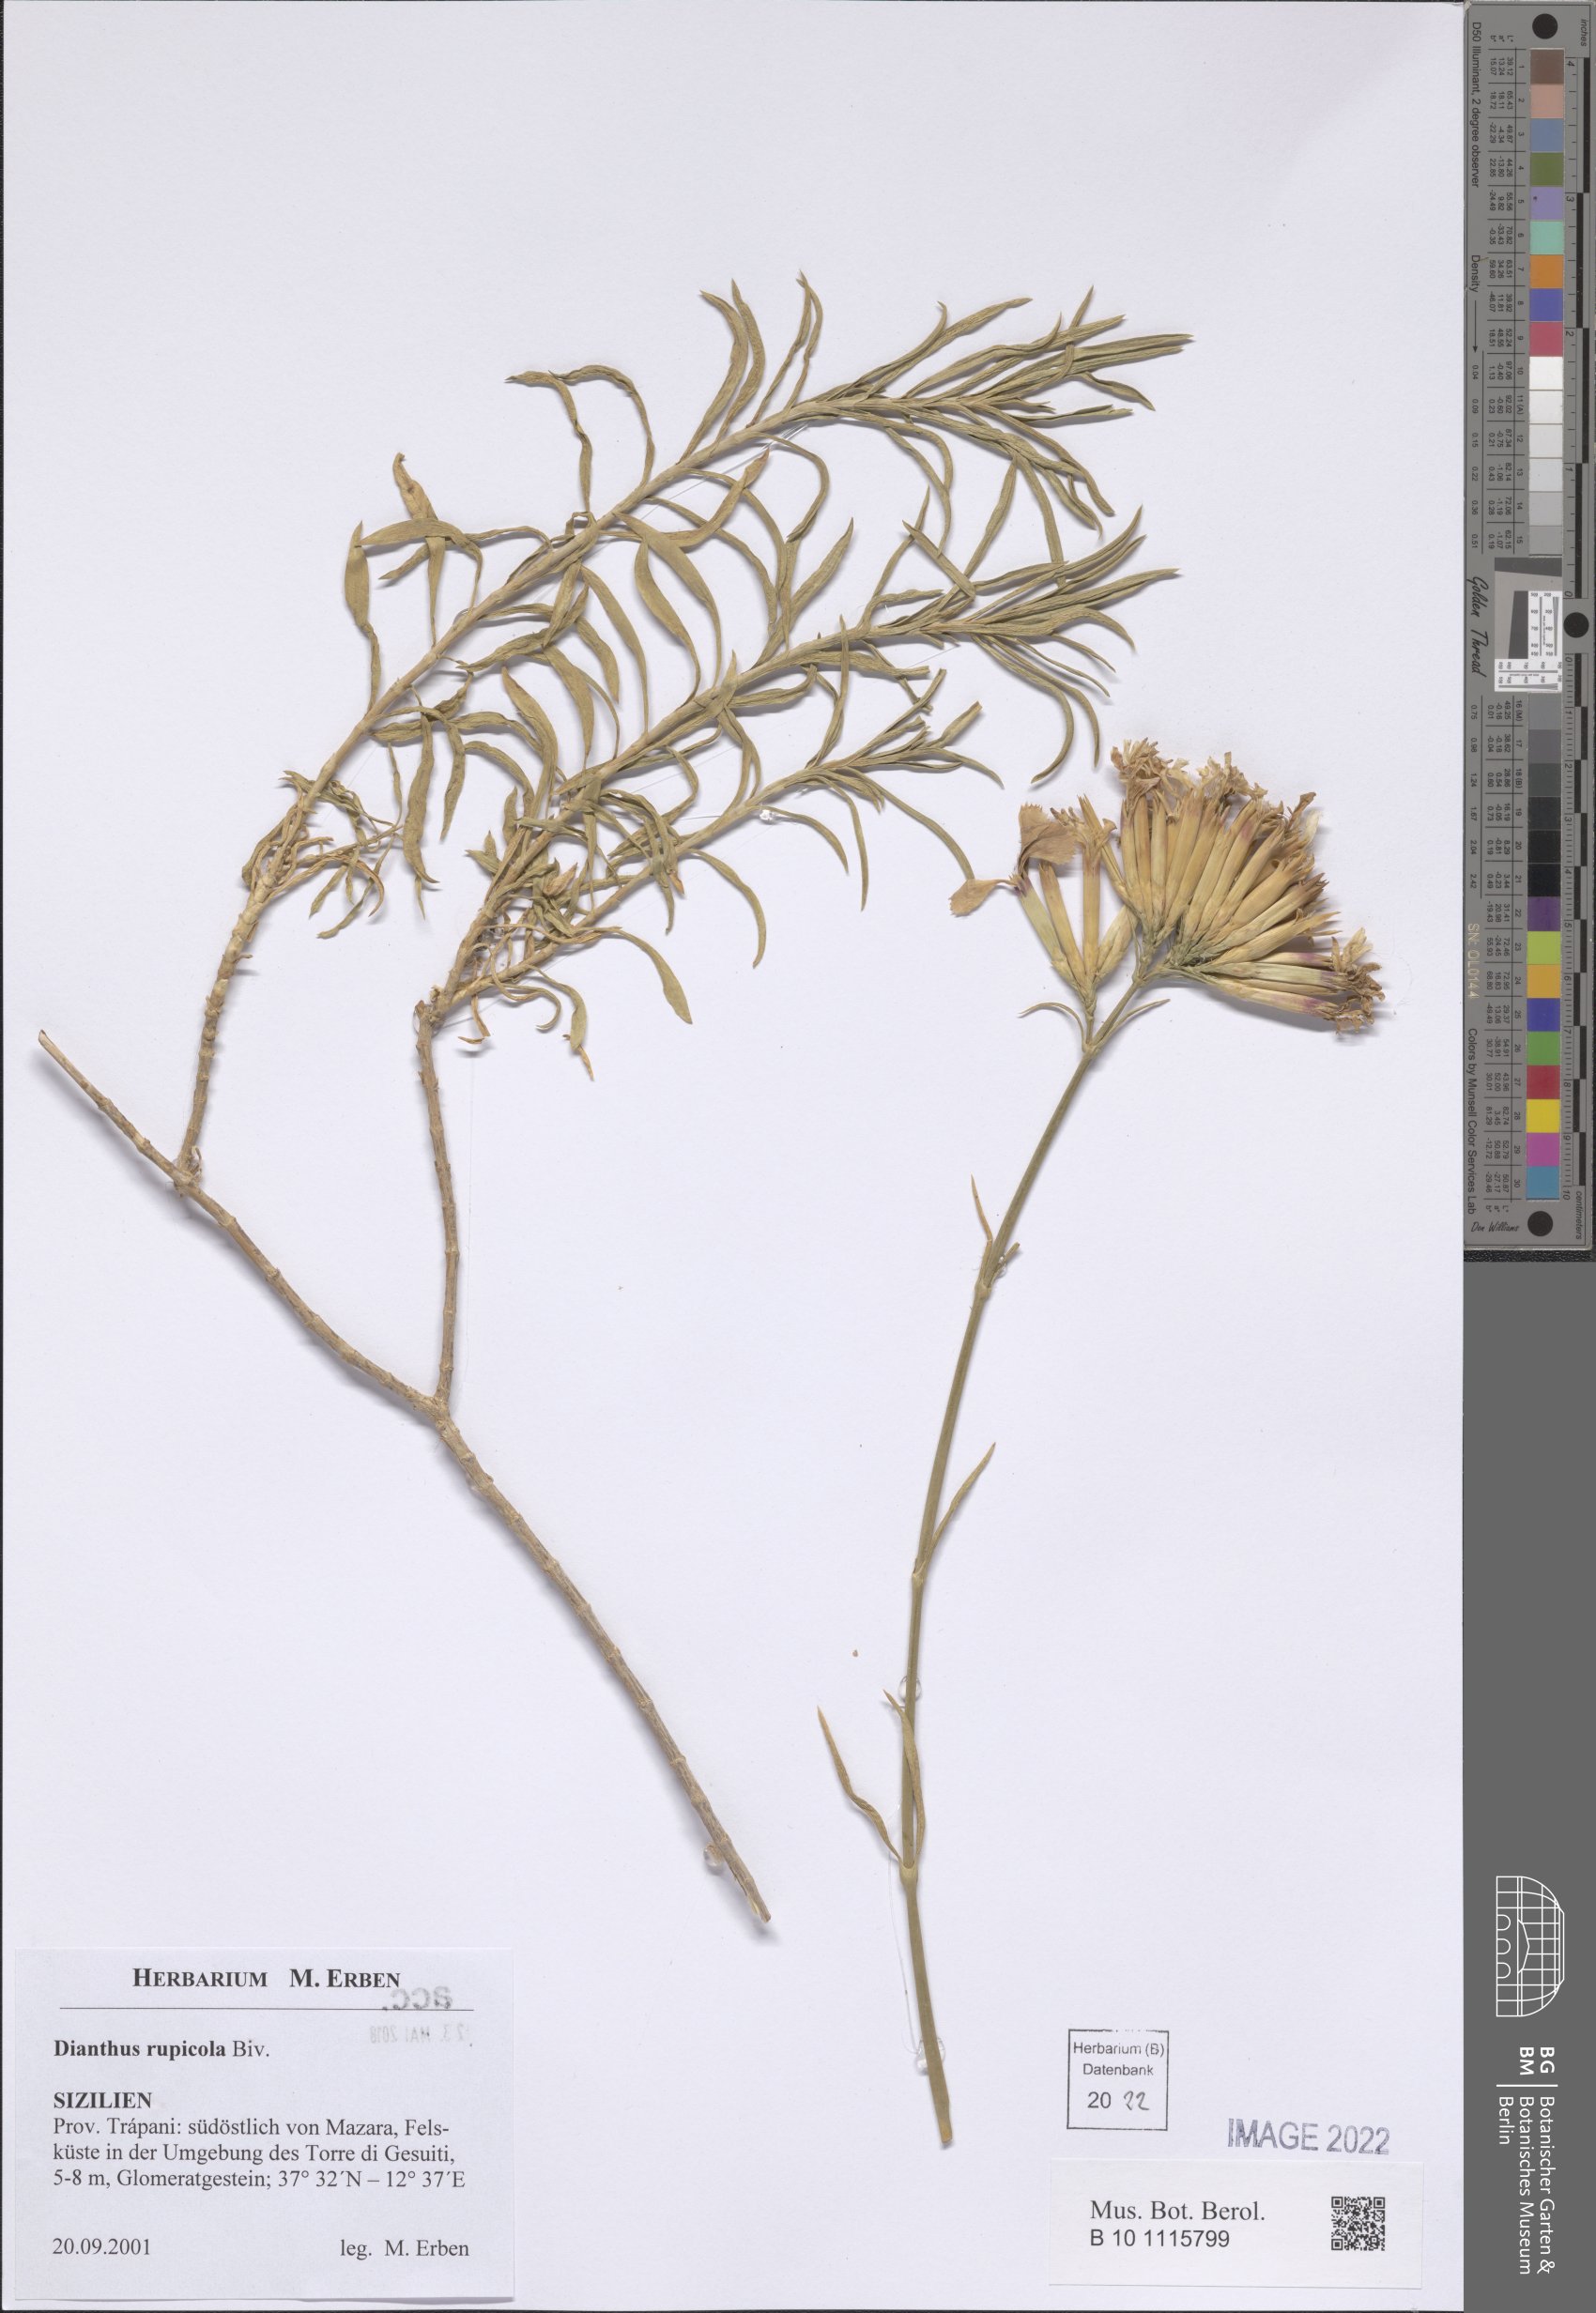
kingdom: Plantae
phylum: Tracheophyta
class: Magnoliopsida
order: Caryophyllales
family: Caryophyllaceae
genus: Dianthus
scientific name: Dianthus rupicola
